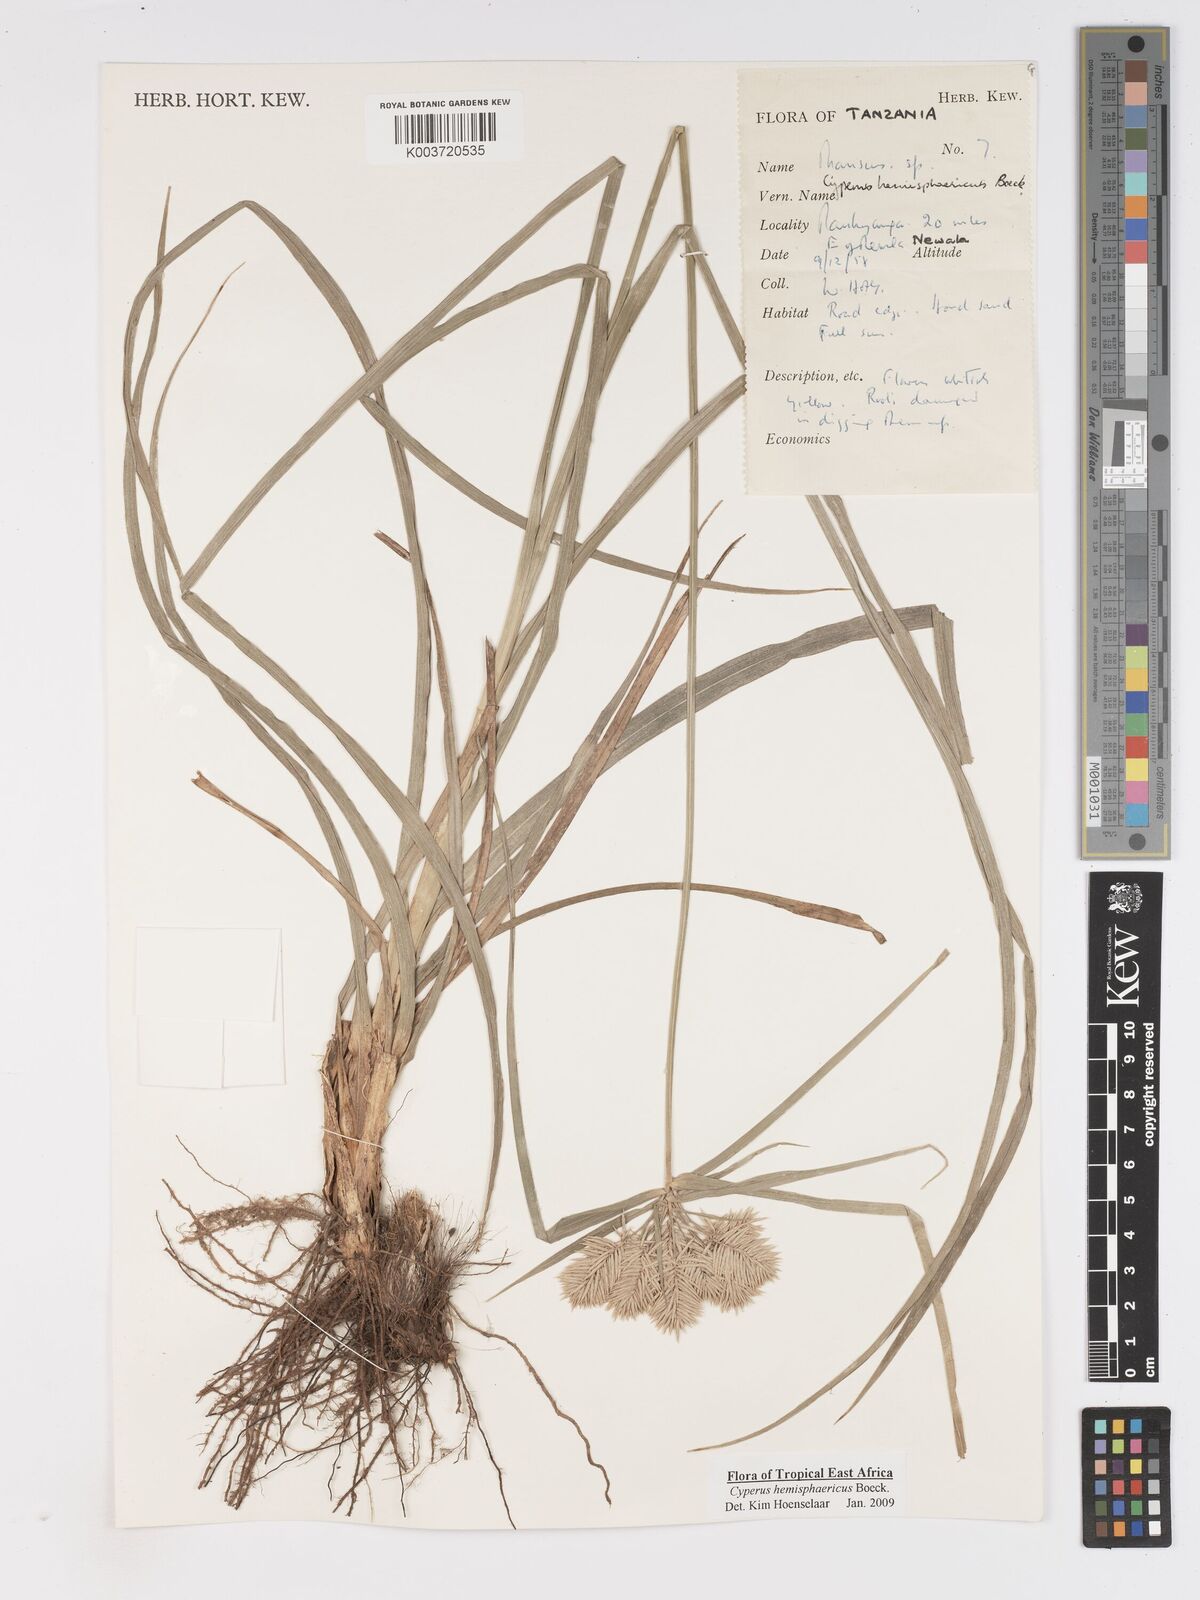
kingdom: Plantae
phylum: Tracheophyta
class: Liliopsida
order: Poales
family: Cyperaceae
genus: Cyperus
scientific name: Cyperus hemisphaericus
